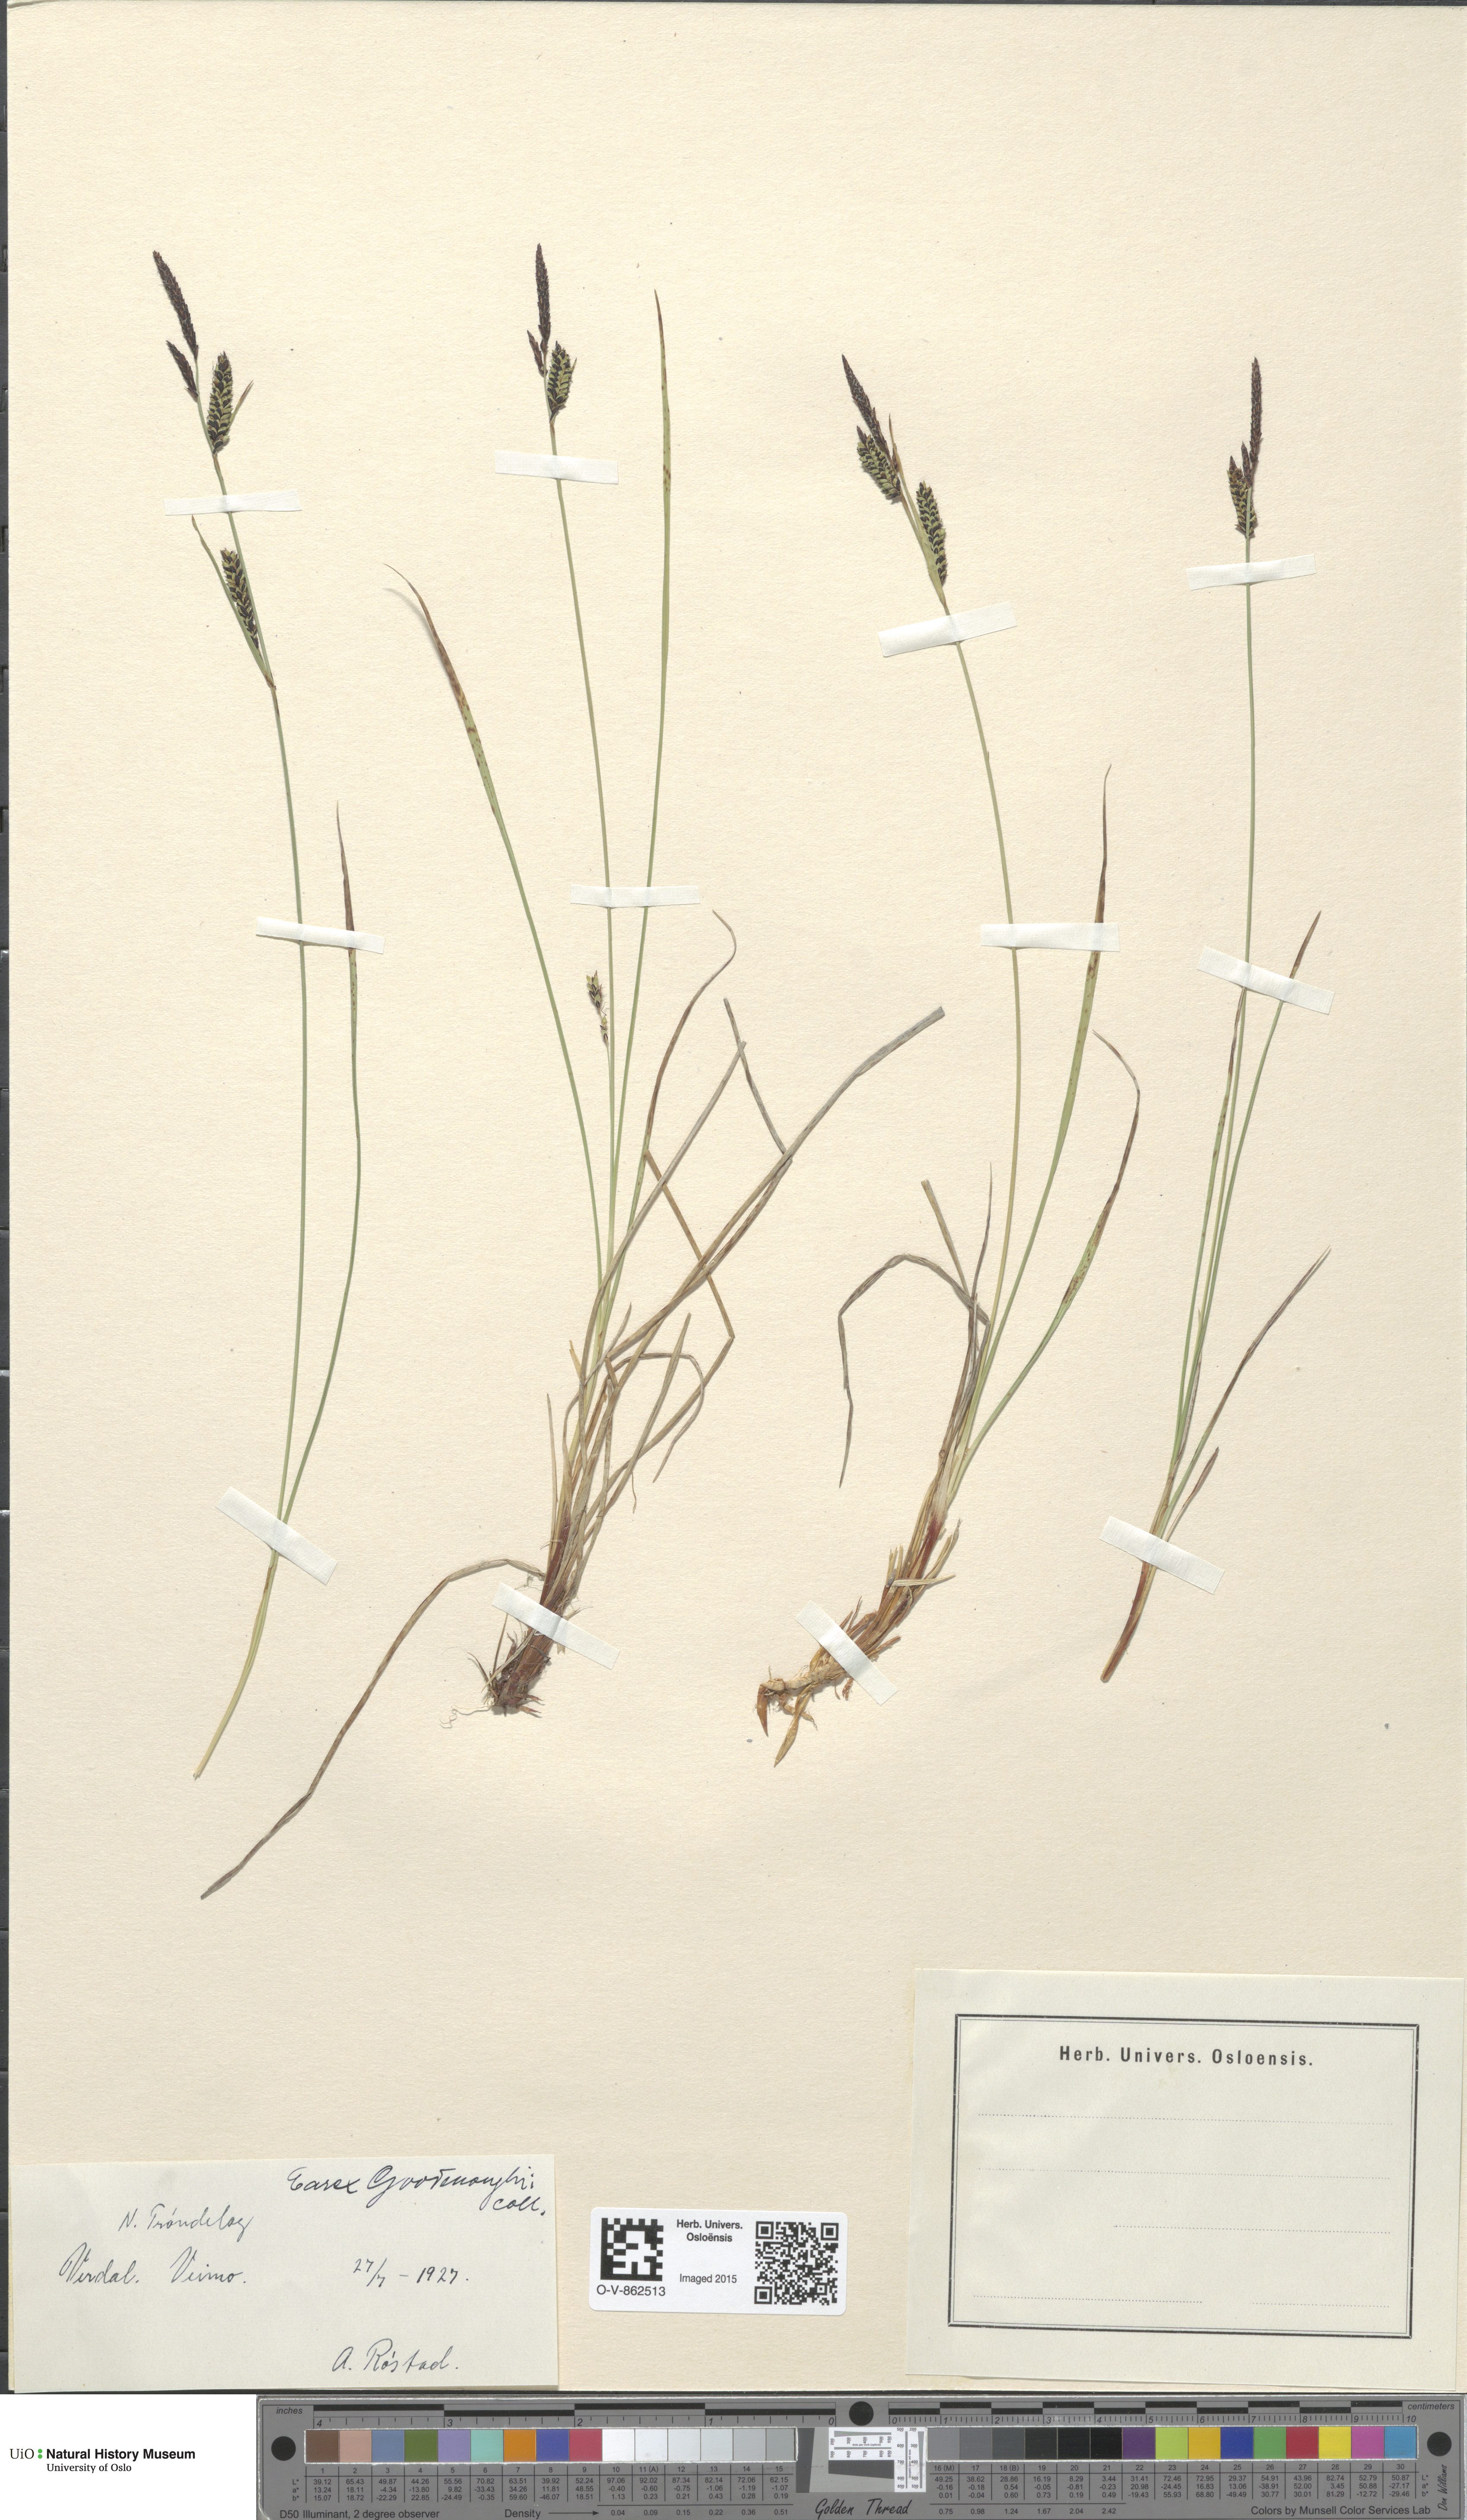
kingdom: Plantae
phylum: Tracheophyta
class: Liliopsida
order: Poales
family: Cyperaceae
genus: Carex
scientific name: Carex nigra
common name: Common sedge
